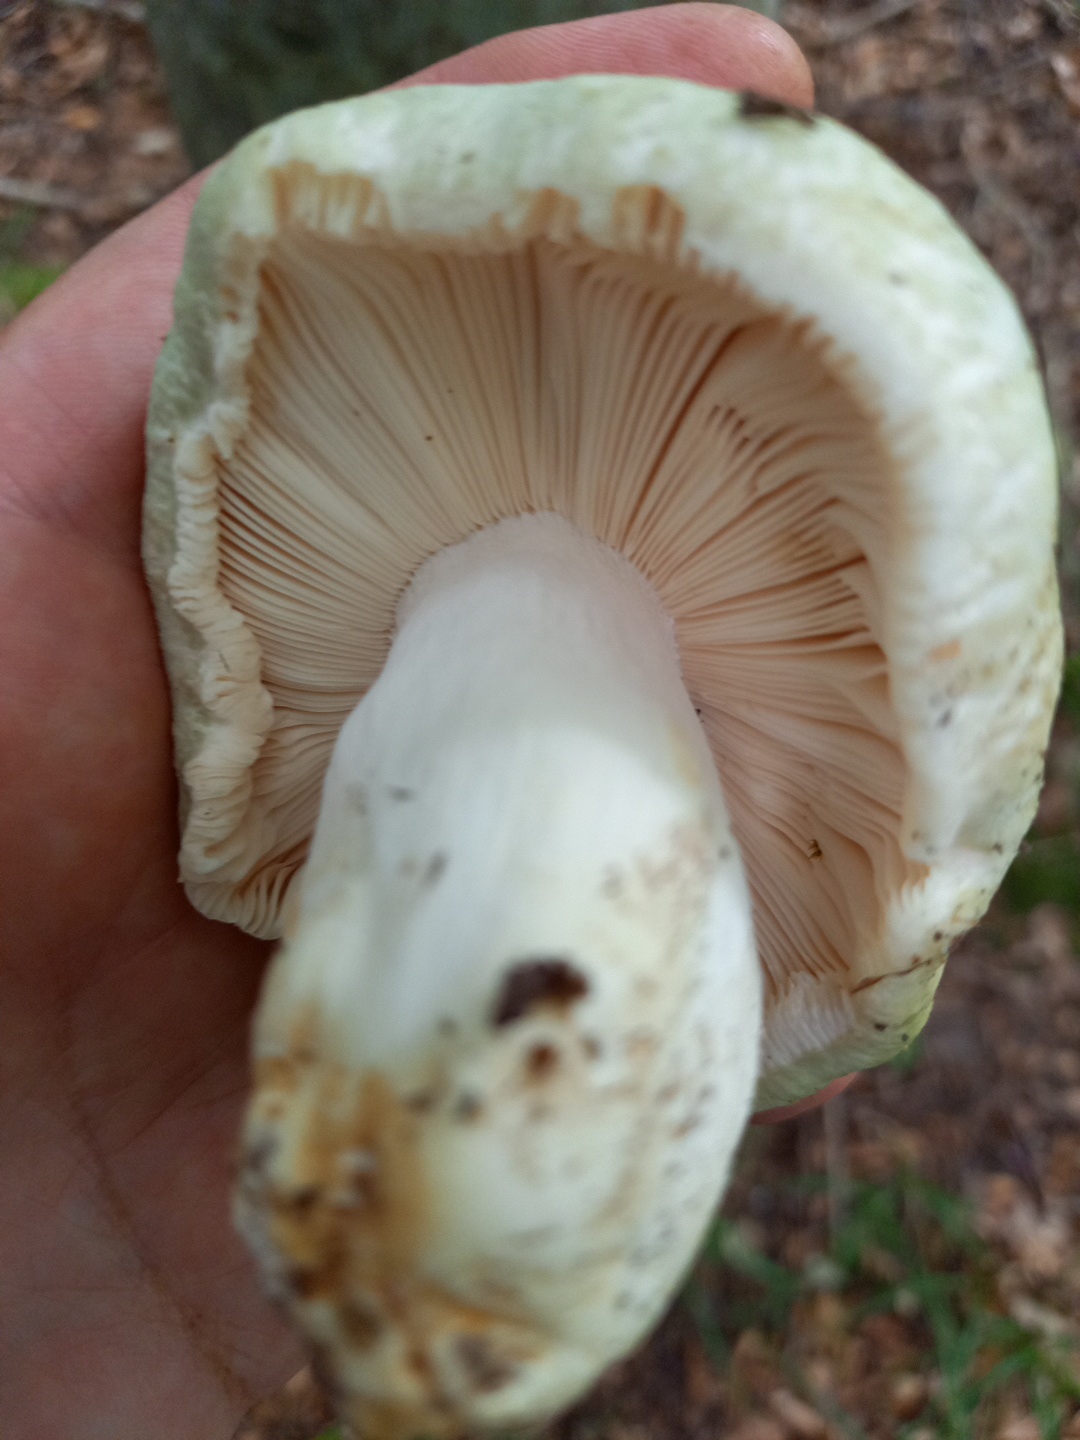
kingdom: Fungi
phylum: Basidiomycota
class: Agaricomycetes
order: Russulales
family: Russulaceae
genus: Russula
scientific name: Russula virescens
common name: spanskgrøn skørhat
